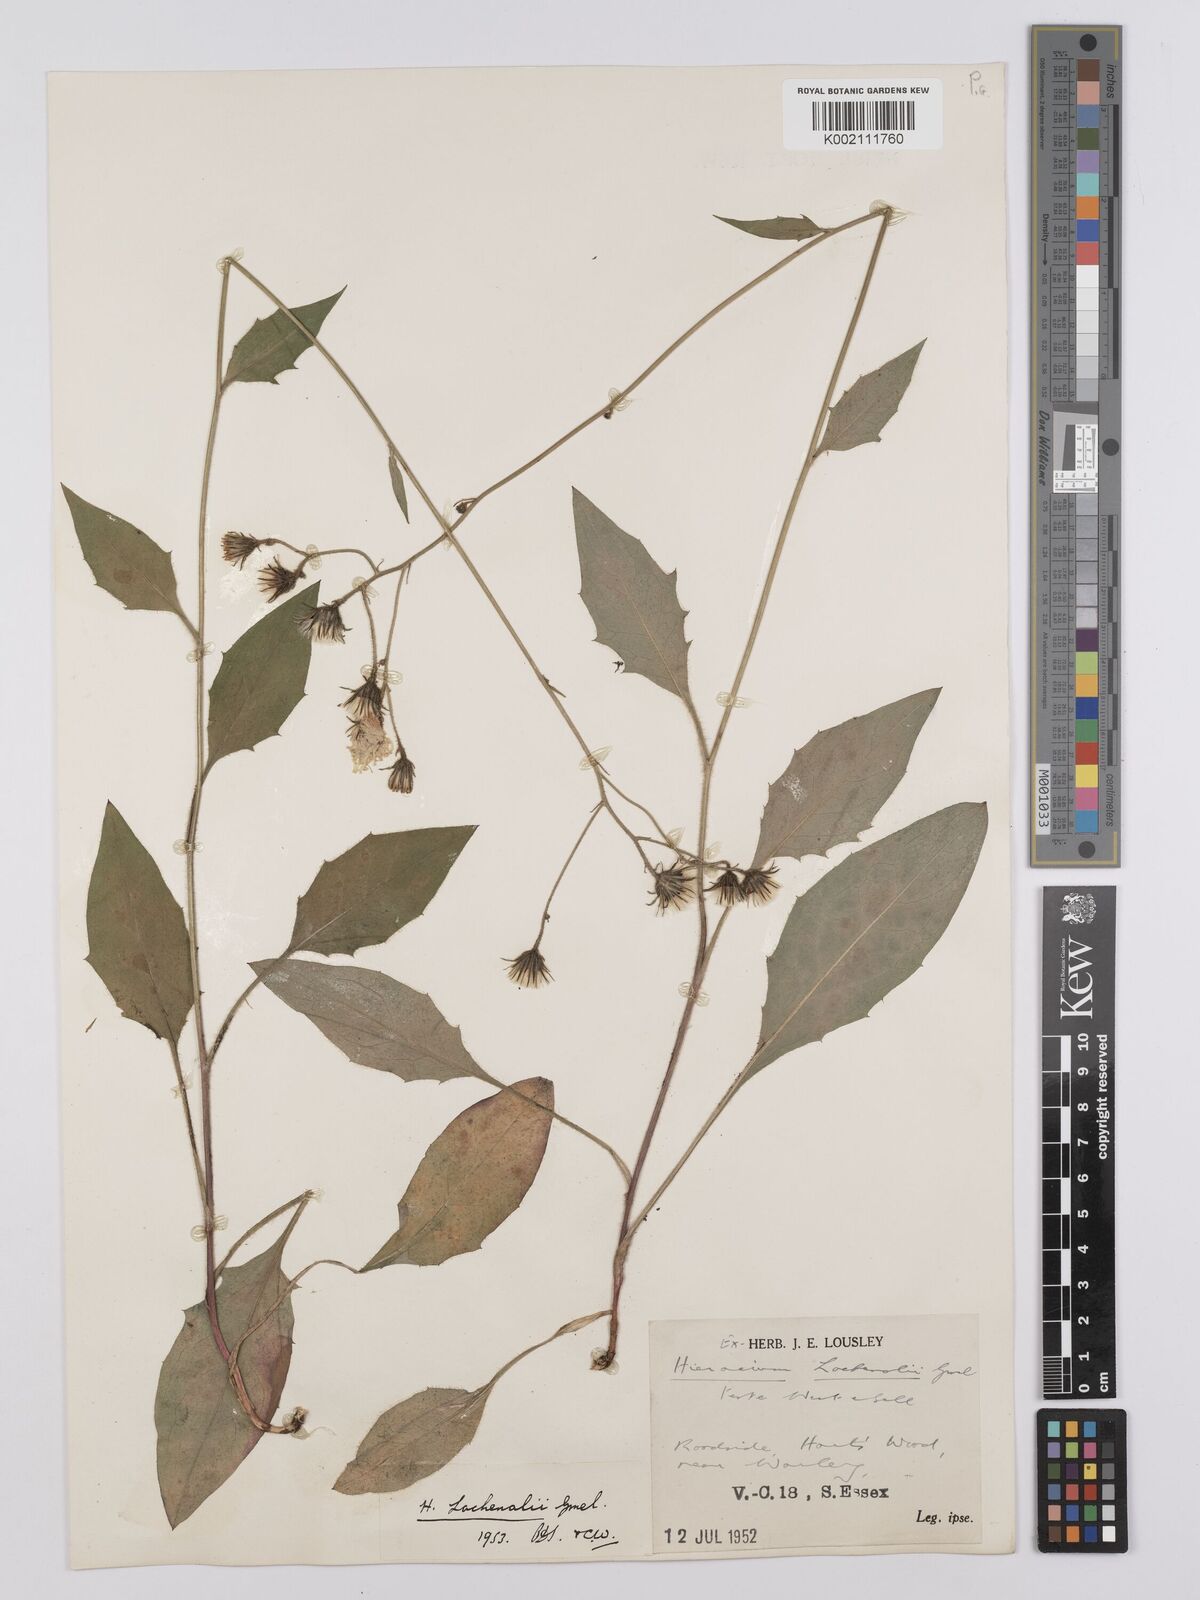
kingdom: Plantae
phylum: Tracheophyta
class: Magnoliopsida
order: Asterales
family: Asteraceae
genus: Hieracium
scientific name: Hieracium lachenalii
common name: Common hawkweed
